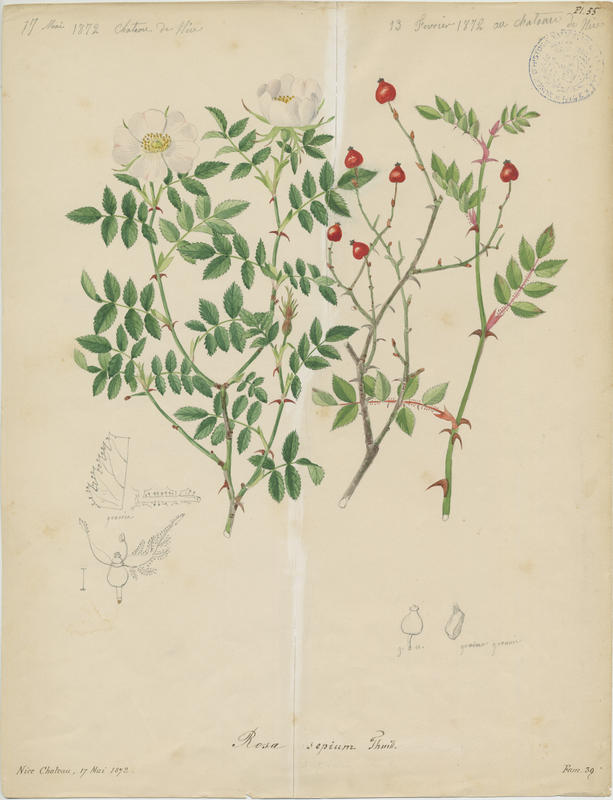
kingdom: Plantae
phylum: Tracheophyta
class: Magnoliopsida
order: Rosales
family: Rosaceae
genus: Rosa
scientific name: Rosa agrestis
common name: Fieldbriar
